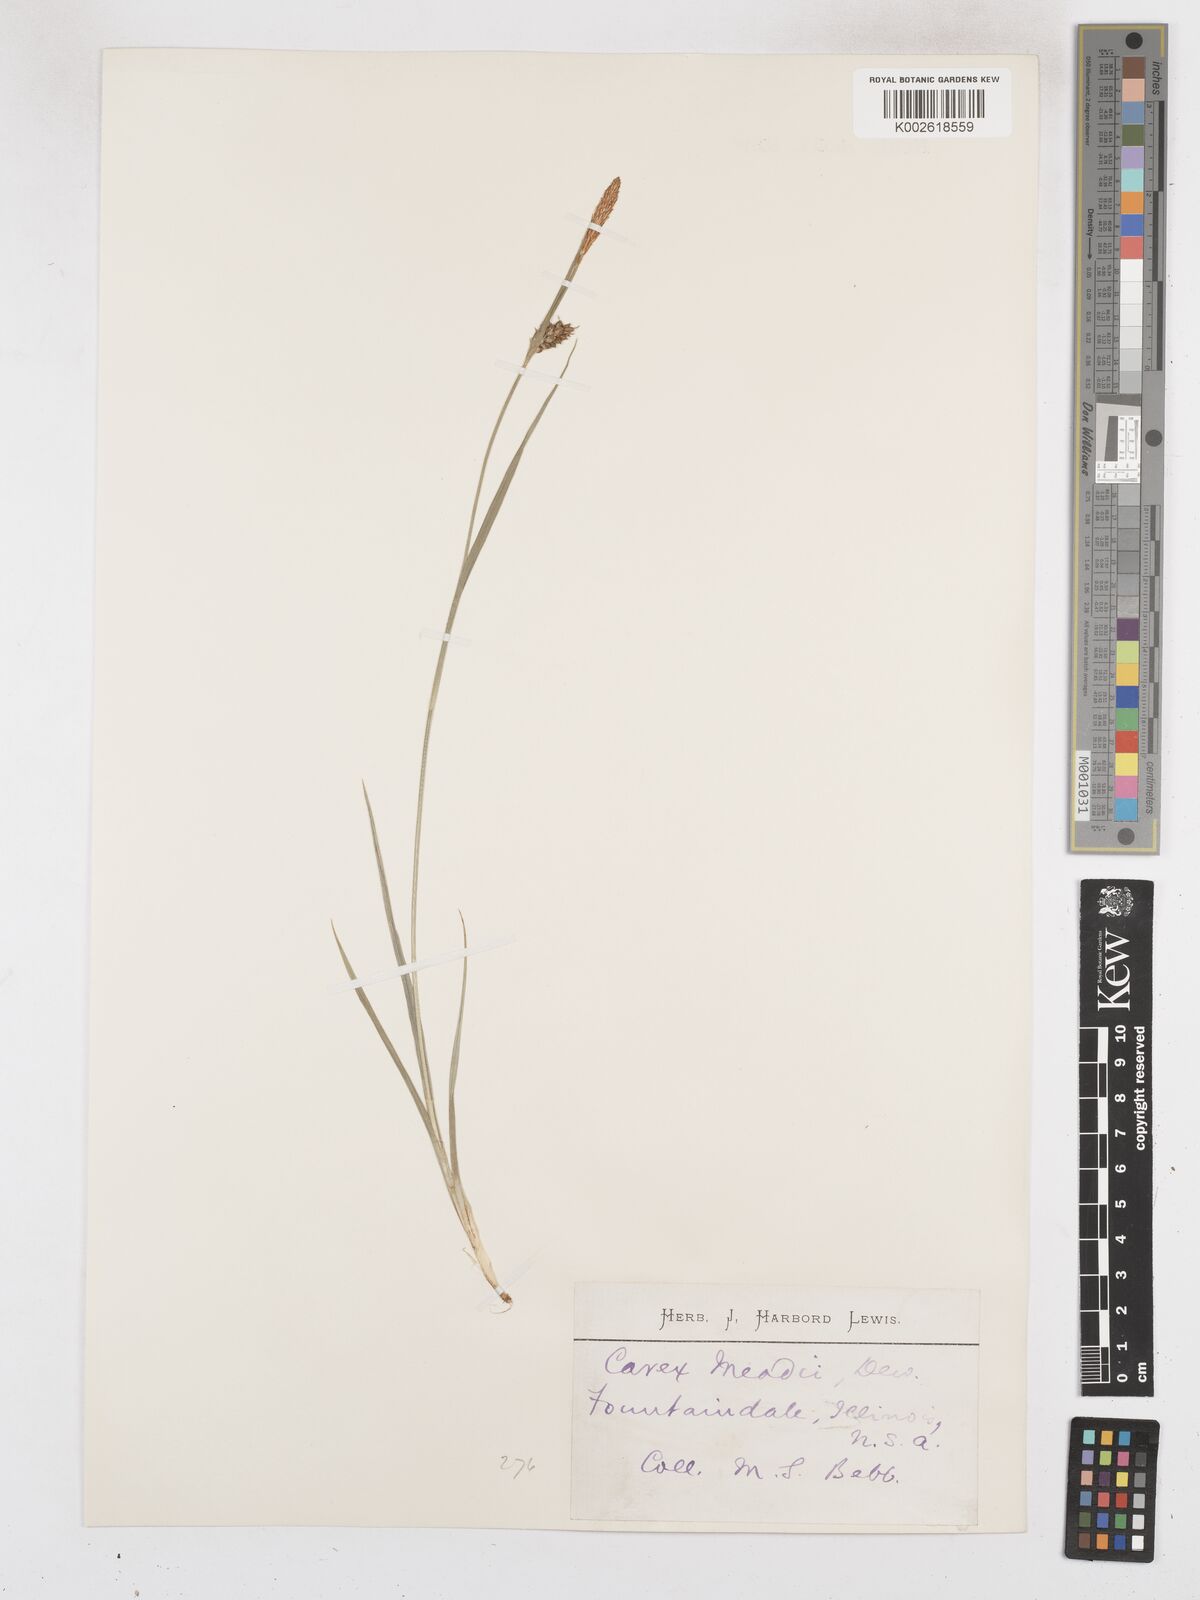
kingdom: Plantae
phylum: Tracheophyta
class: Liliopsida
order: Poales
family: Cyperaceae
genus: Carex
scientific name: Carex meadii
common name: Mead's sedge
